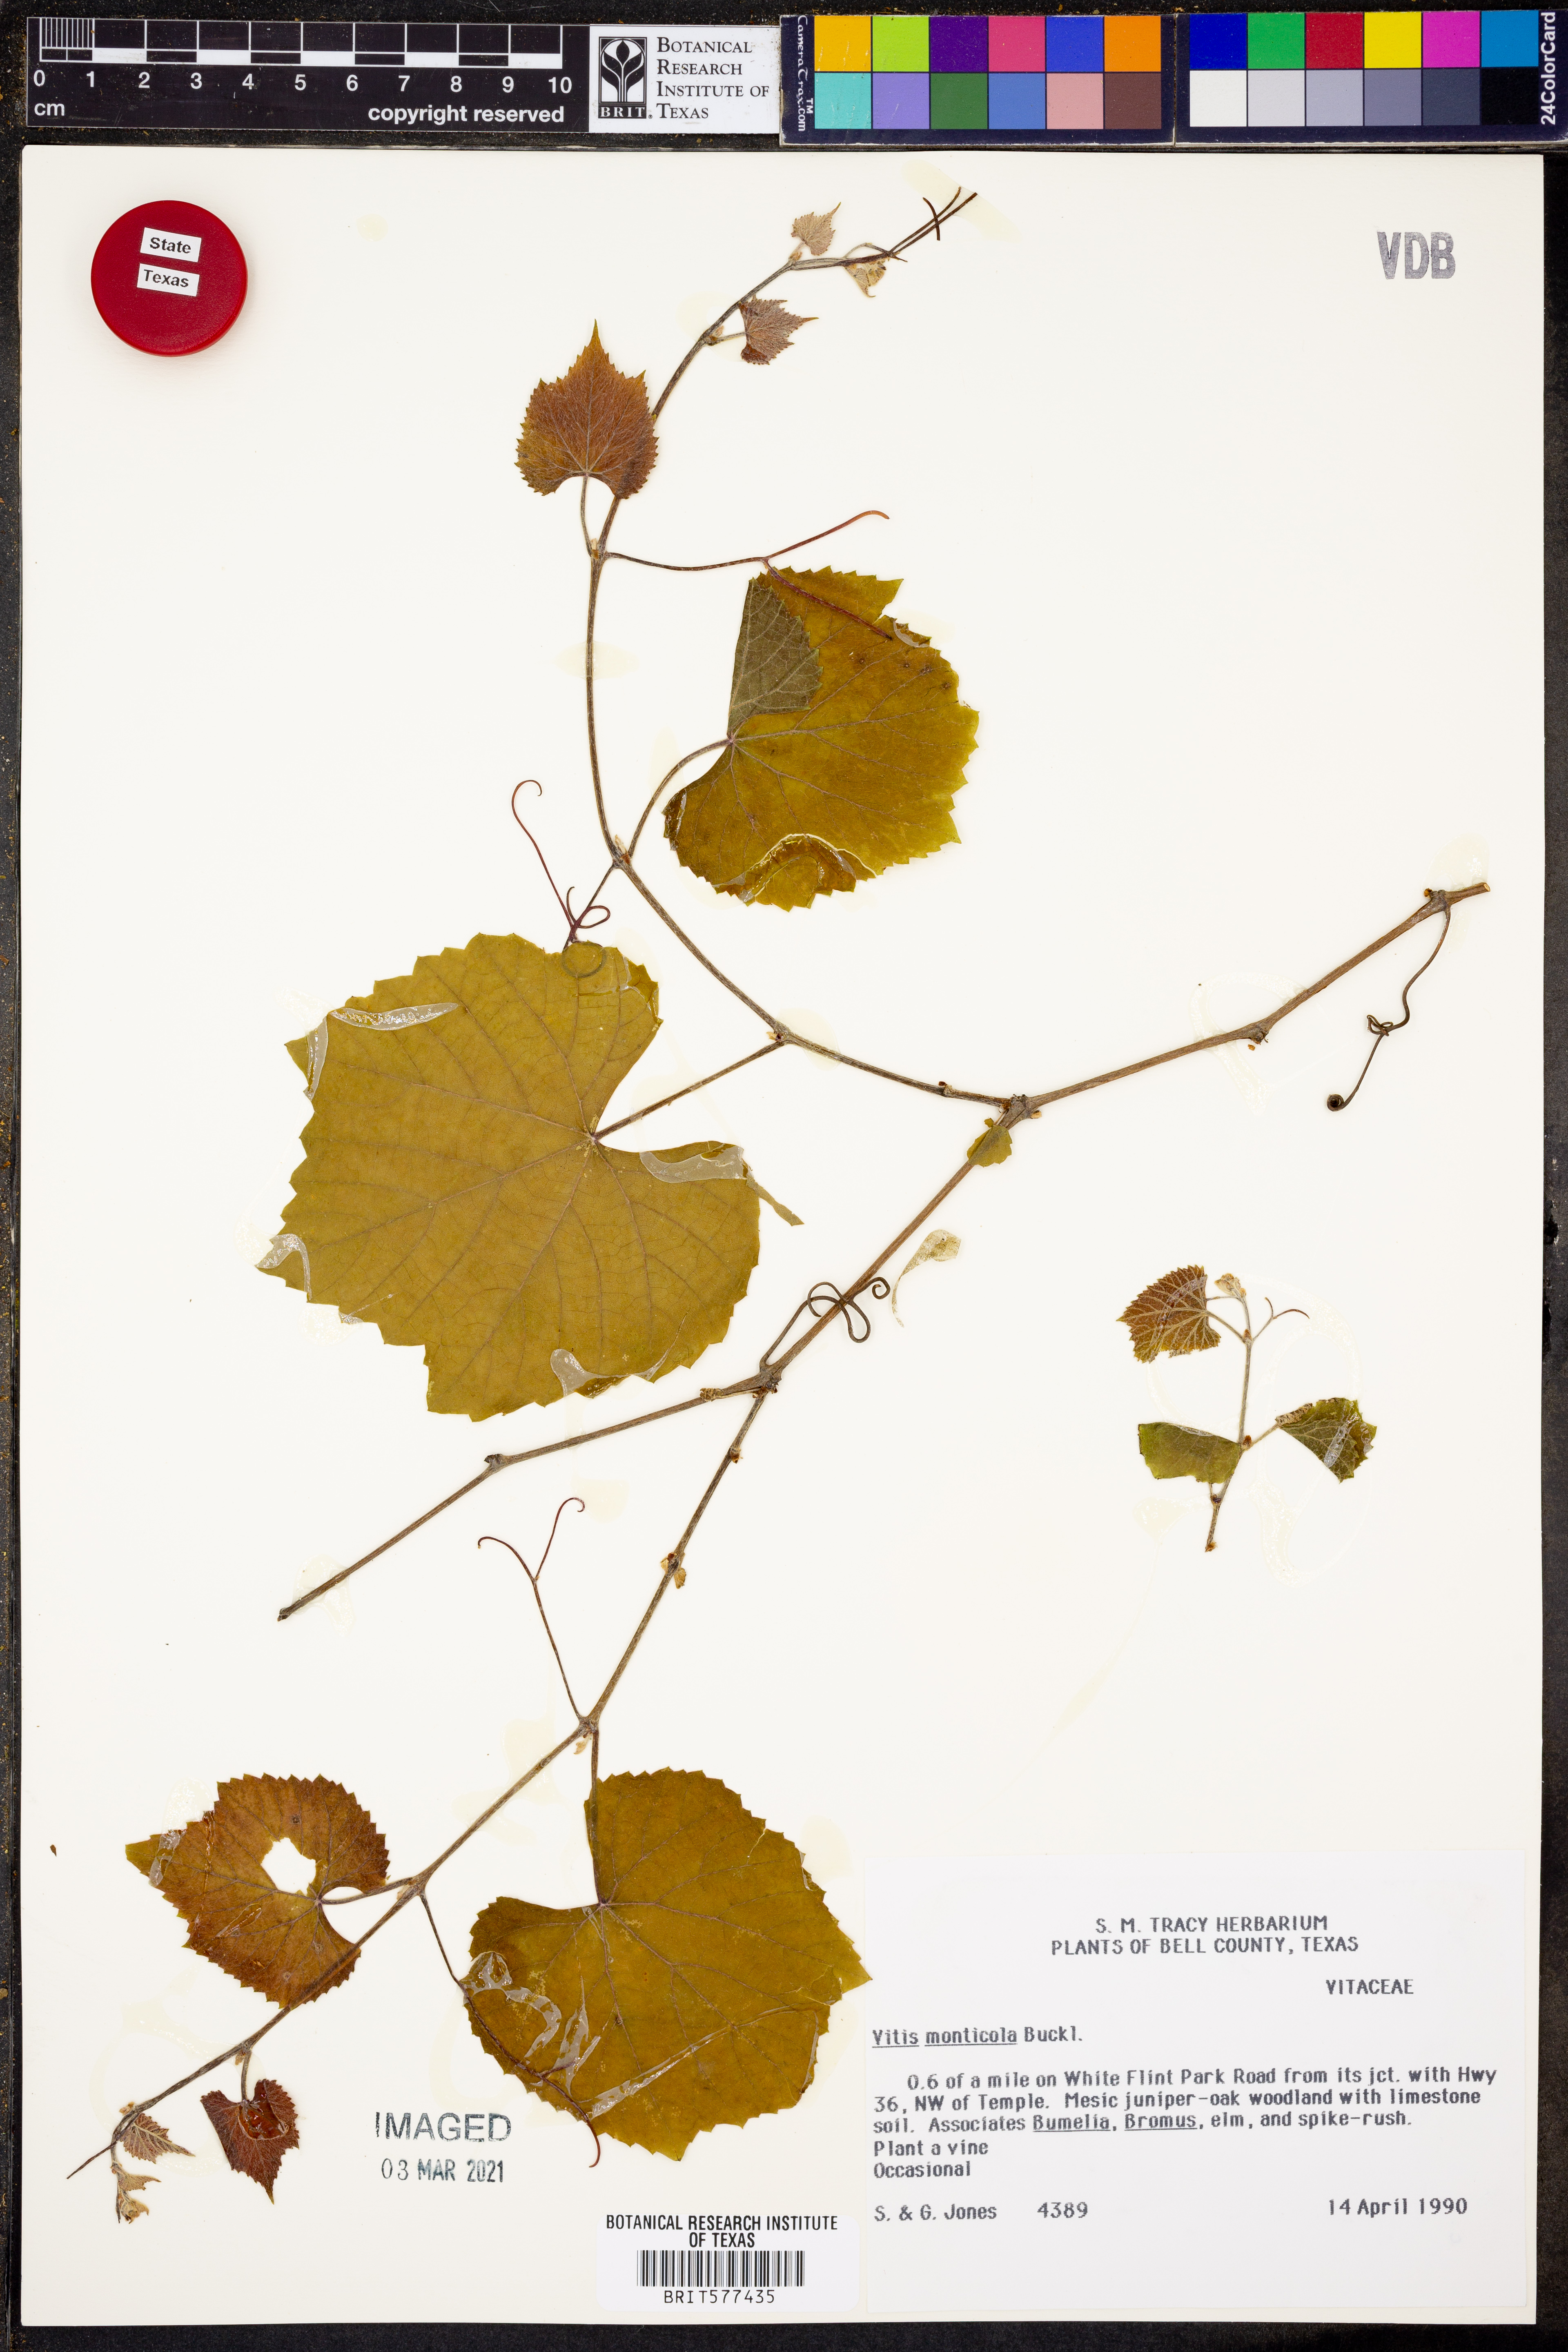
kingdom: Plantae
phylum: Tracheophyta
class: Magnoliopsida
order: Vitales
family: Vitaceae
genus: Vitis
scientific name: Vitis monticola
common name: Mountain grape
